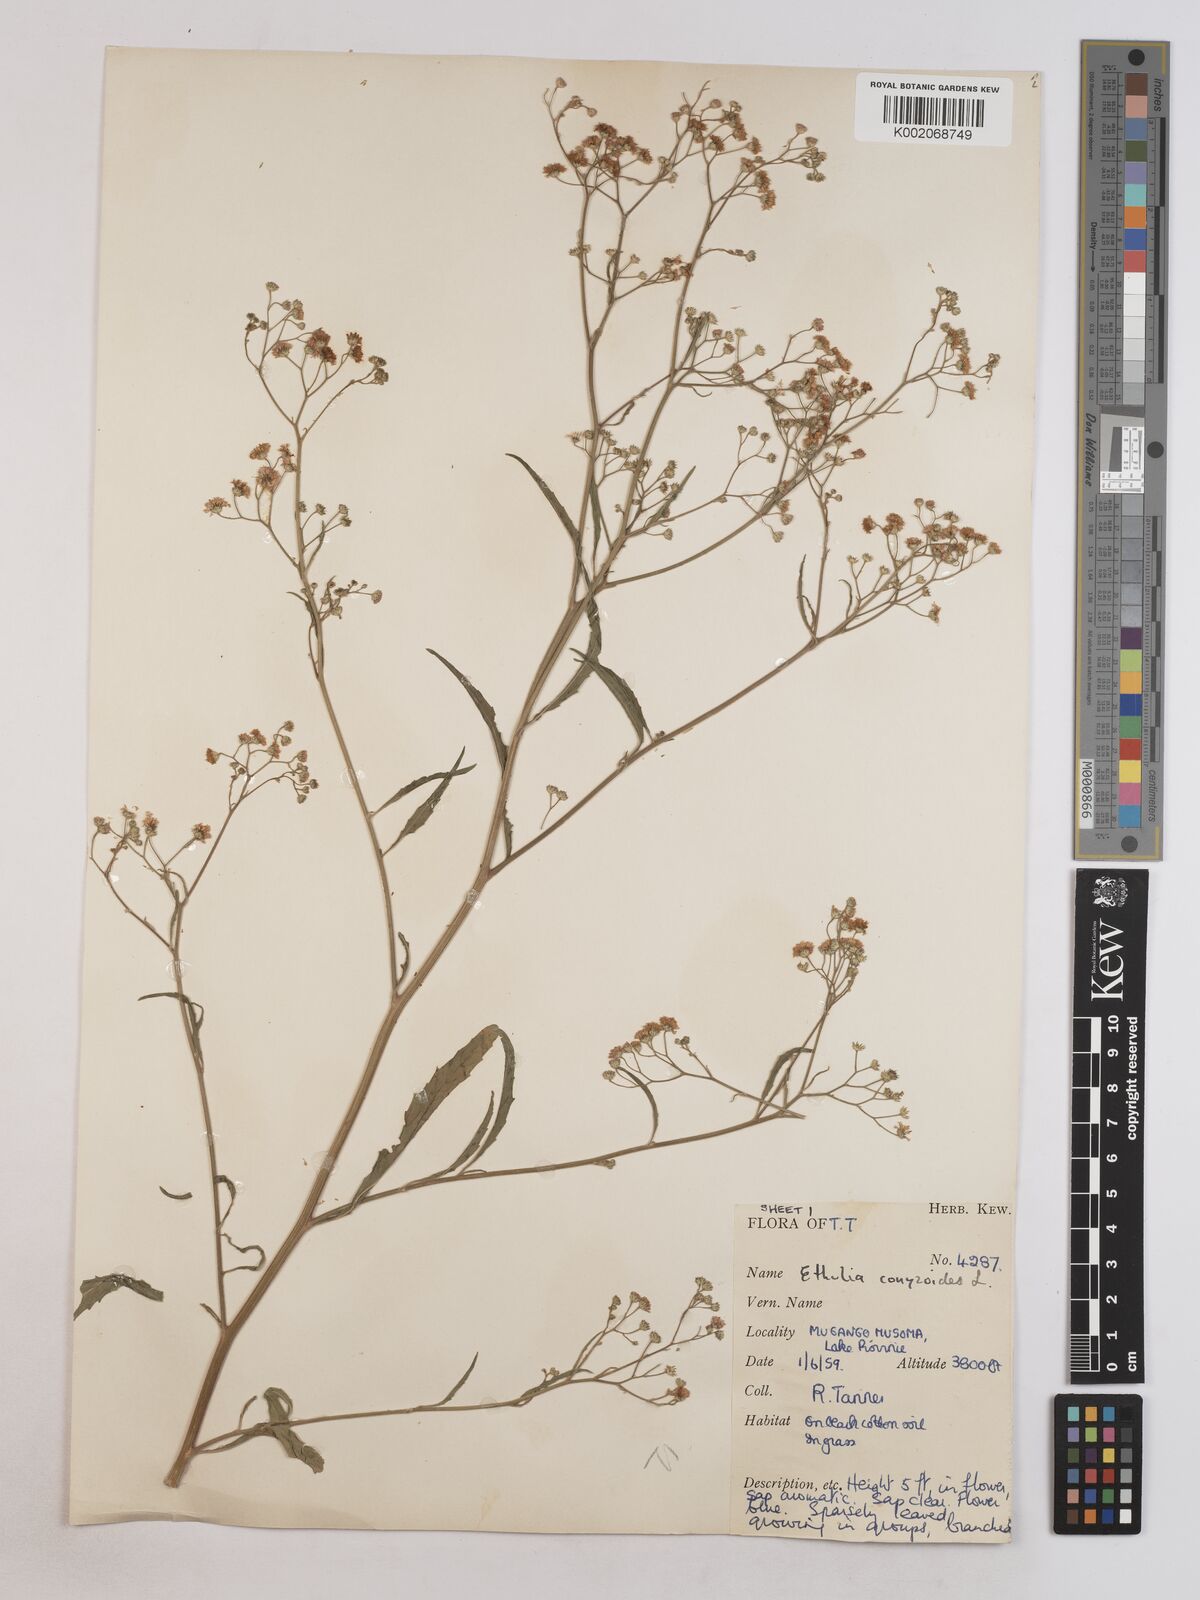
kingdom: Plantae
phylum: Tracheophyta
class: Magnoliopsida
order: Asterales
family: Asteraceae
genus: Ethulia
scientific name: Ethulia acuminata
